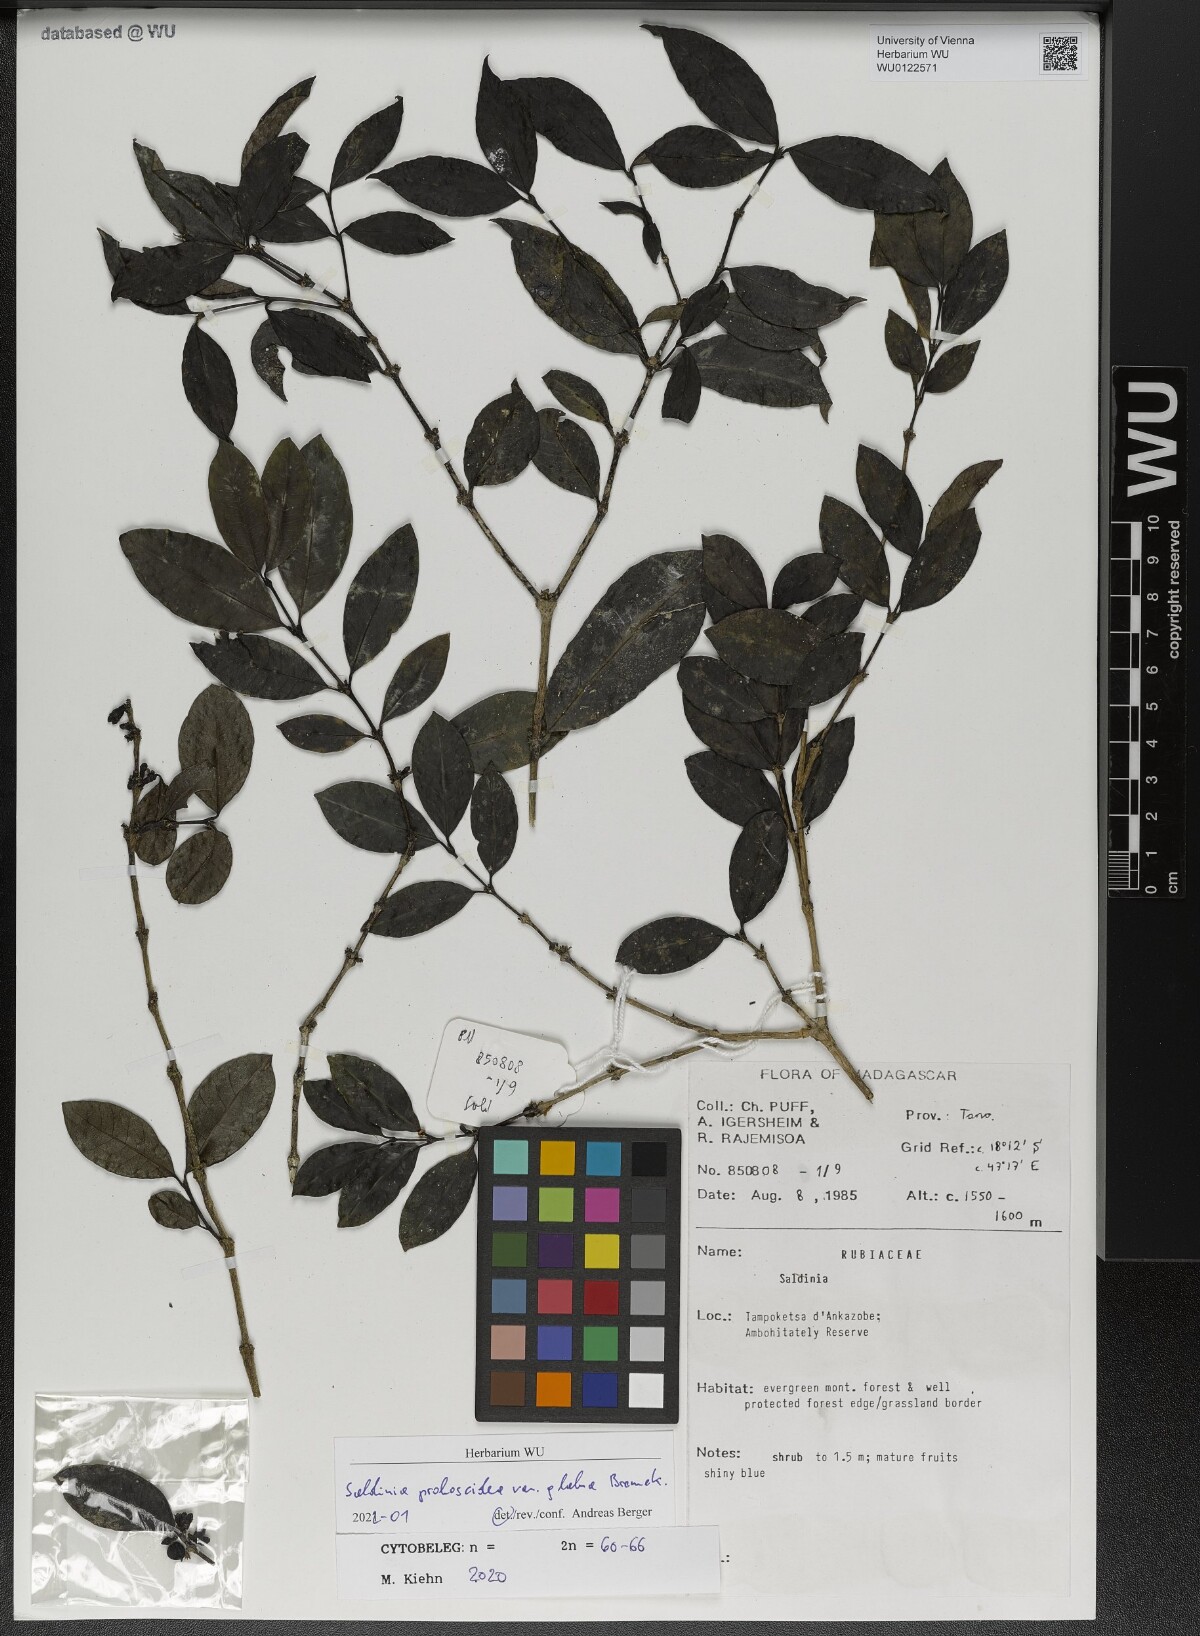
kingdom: Plantae
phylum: Tracheophyta
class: Magnoliopsida
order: Gentianales
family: Rubiaceae
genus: Saldinia
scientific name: Saldinia proboscidea
